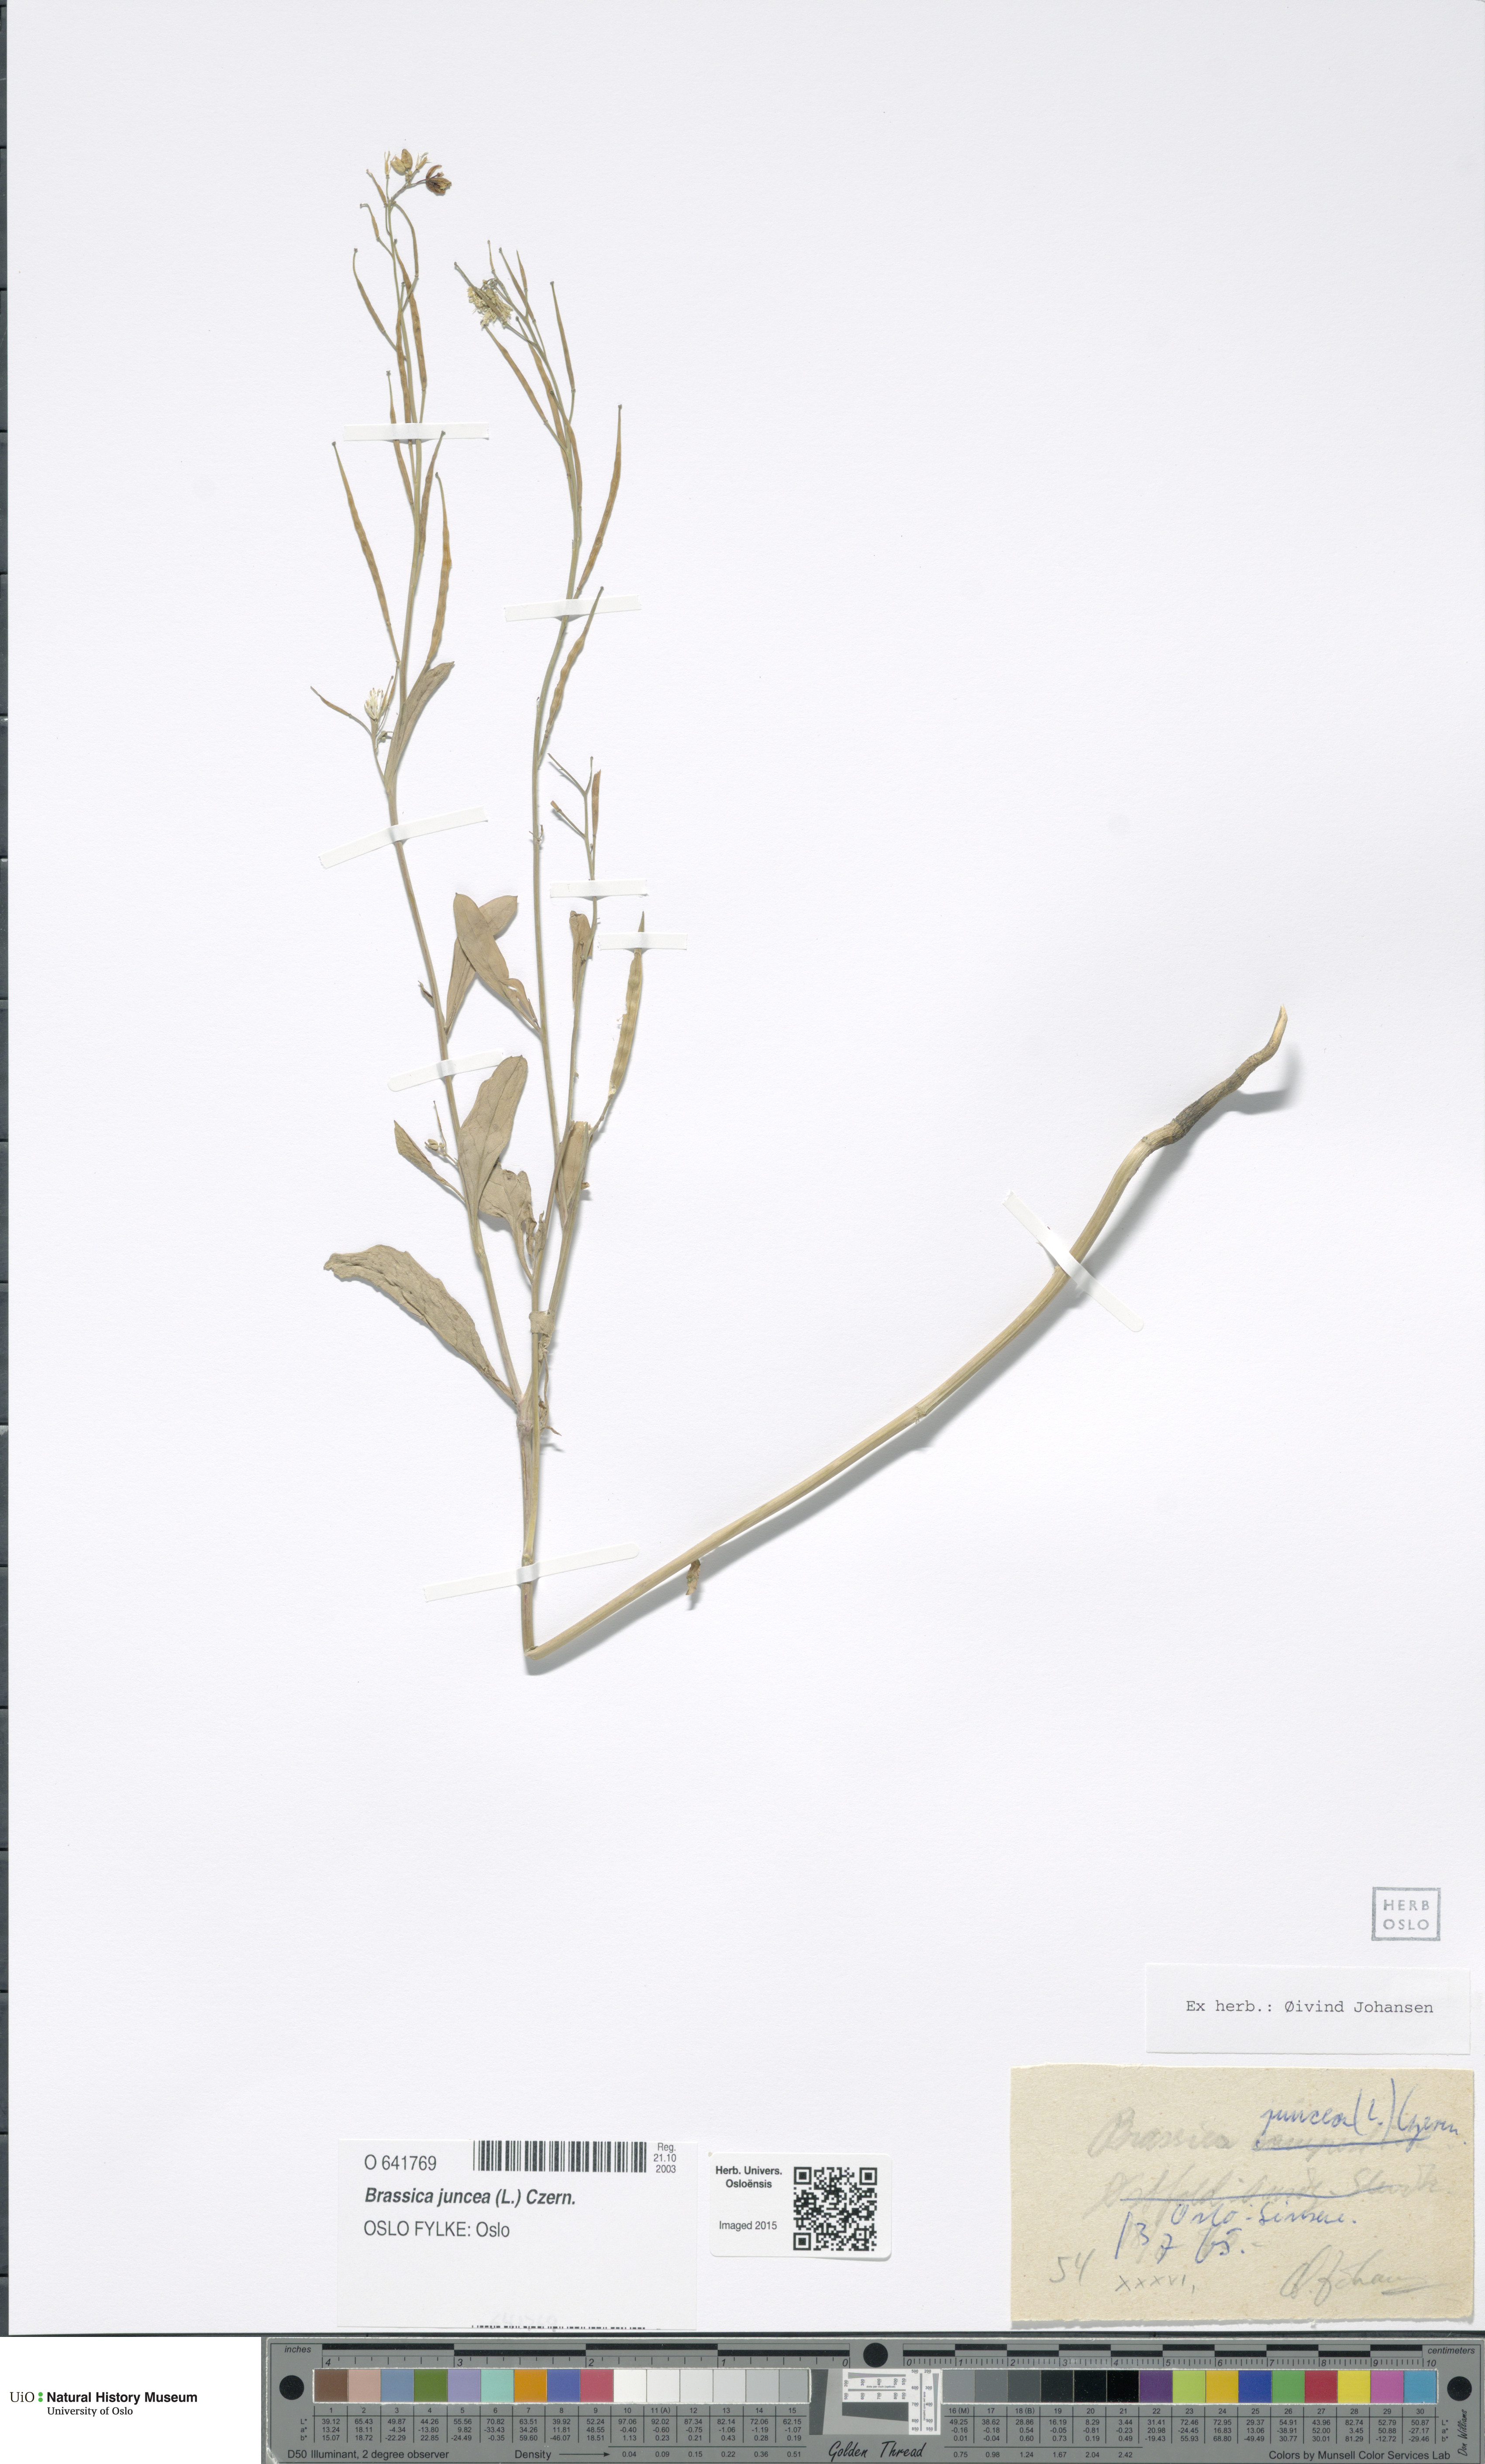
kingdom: Plantae
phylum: Tracheophyta
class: Magnoliopsida
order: Brassicales
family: Brassicaceae
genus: Brassica
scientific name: Brassica juncea
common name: Brown mustard
